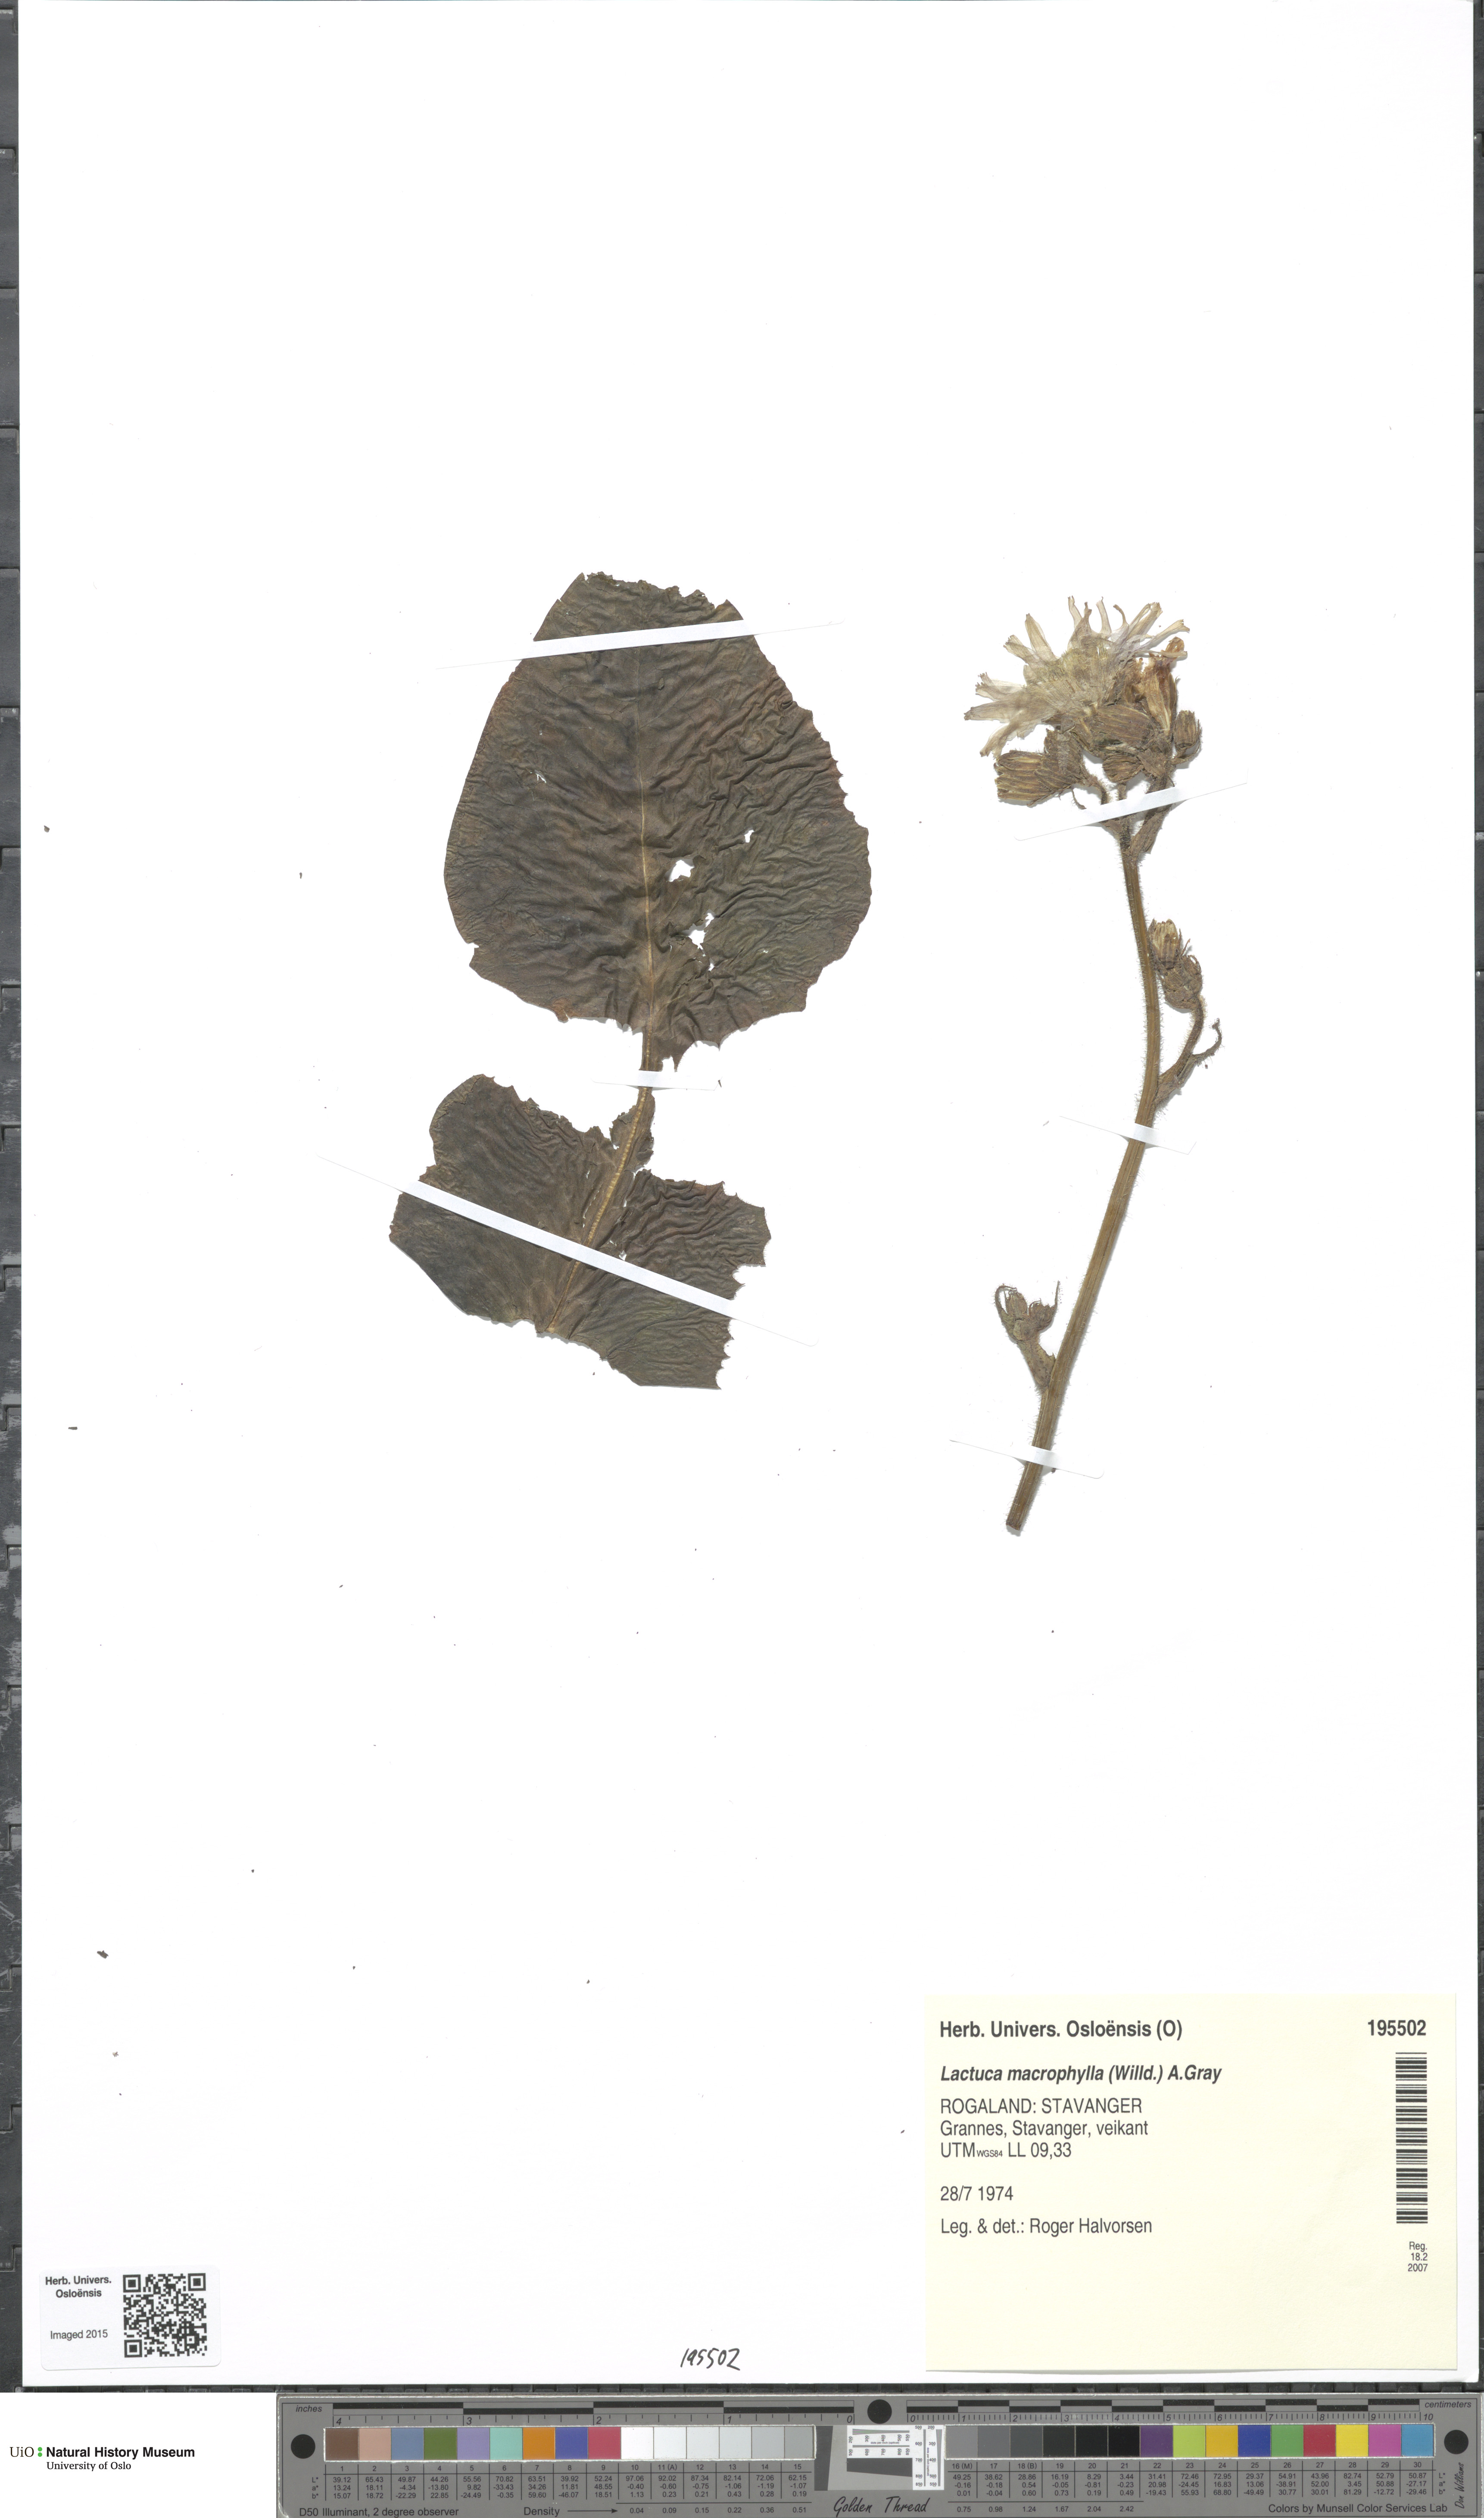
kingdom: Plantae
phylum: Tracheophyta
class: Magnoliopsida
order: Asterales
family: Asteraceae
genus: Lactuca
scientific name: Lactuca macrophylla
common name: Common blue-sow-thistle
